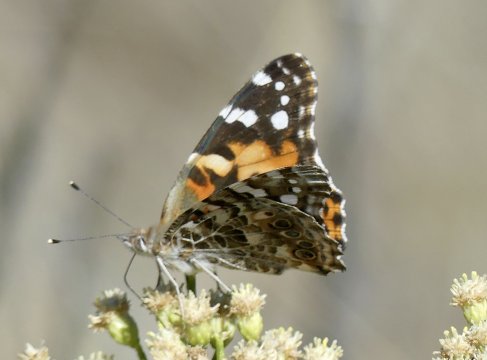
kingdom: Animalia
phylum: Arthropoda
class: Insecta
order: Lepidoptera
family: Nymphalidae
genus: Vanessa
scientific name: Vanessa cardui
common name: Painted Lady
